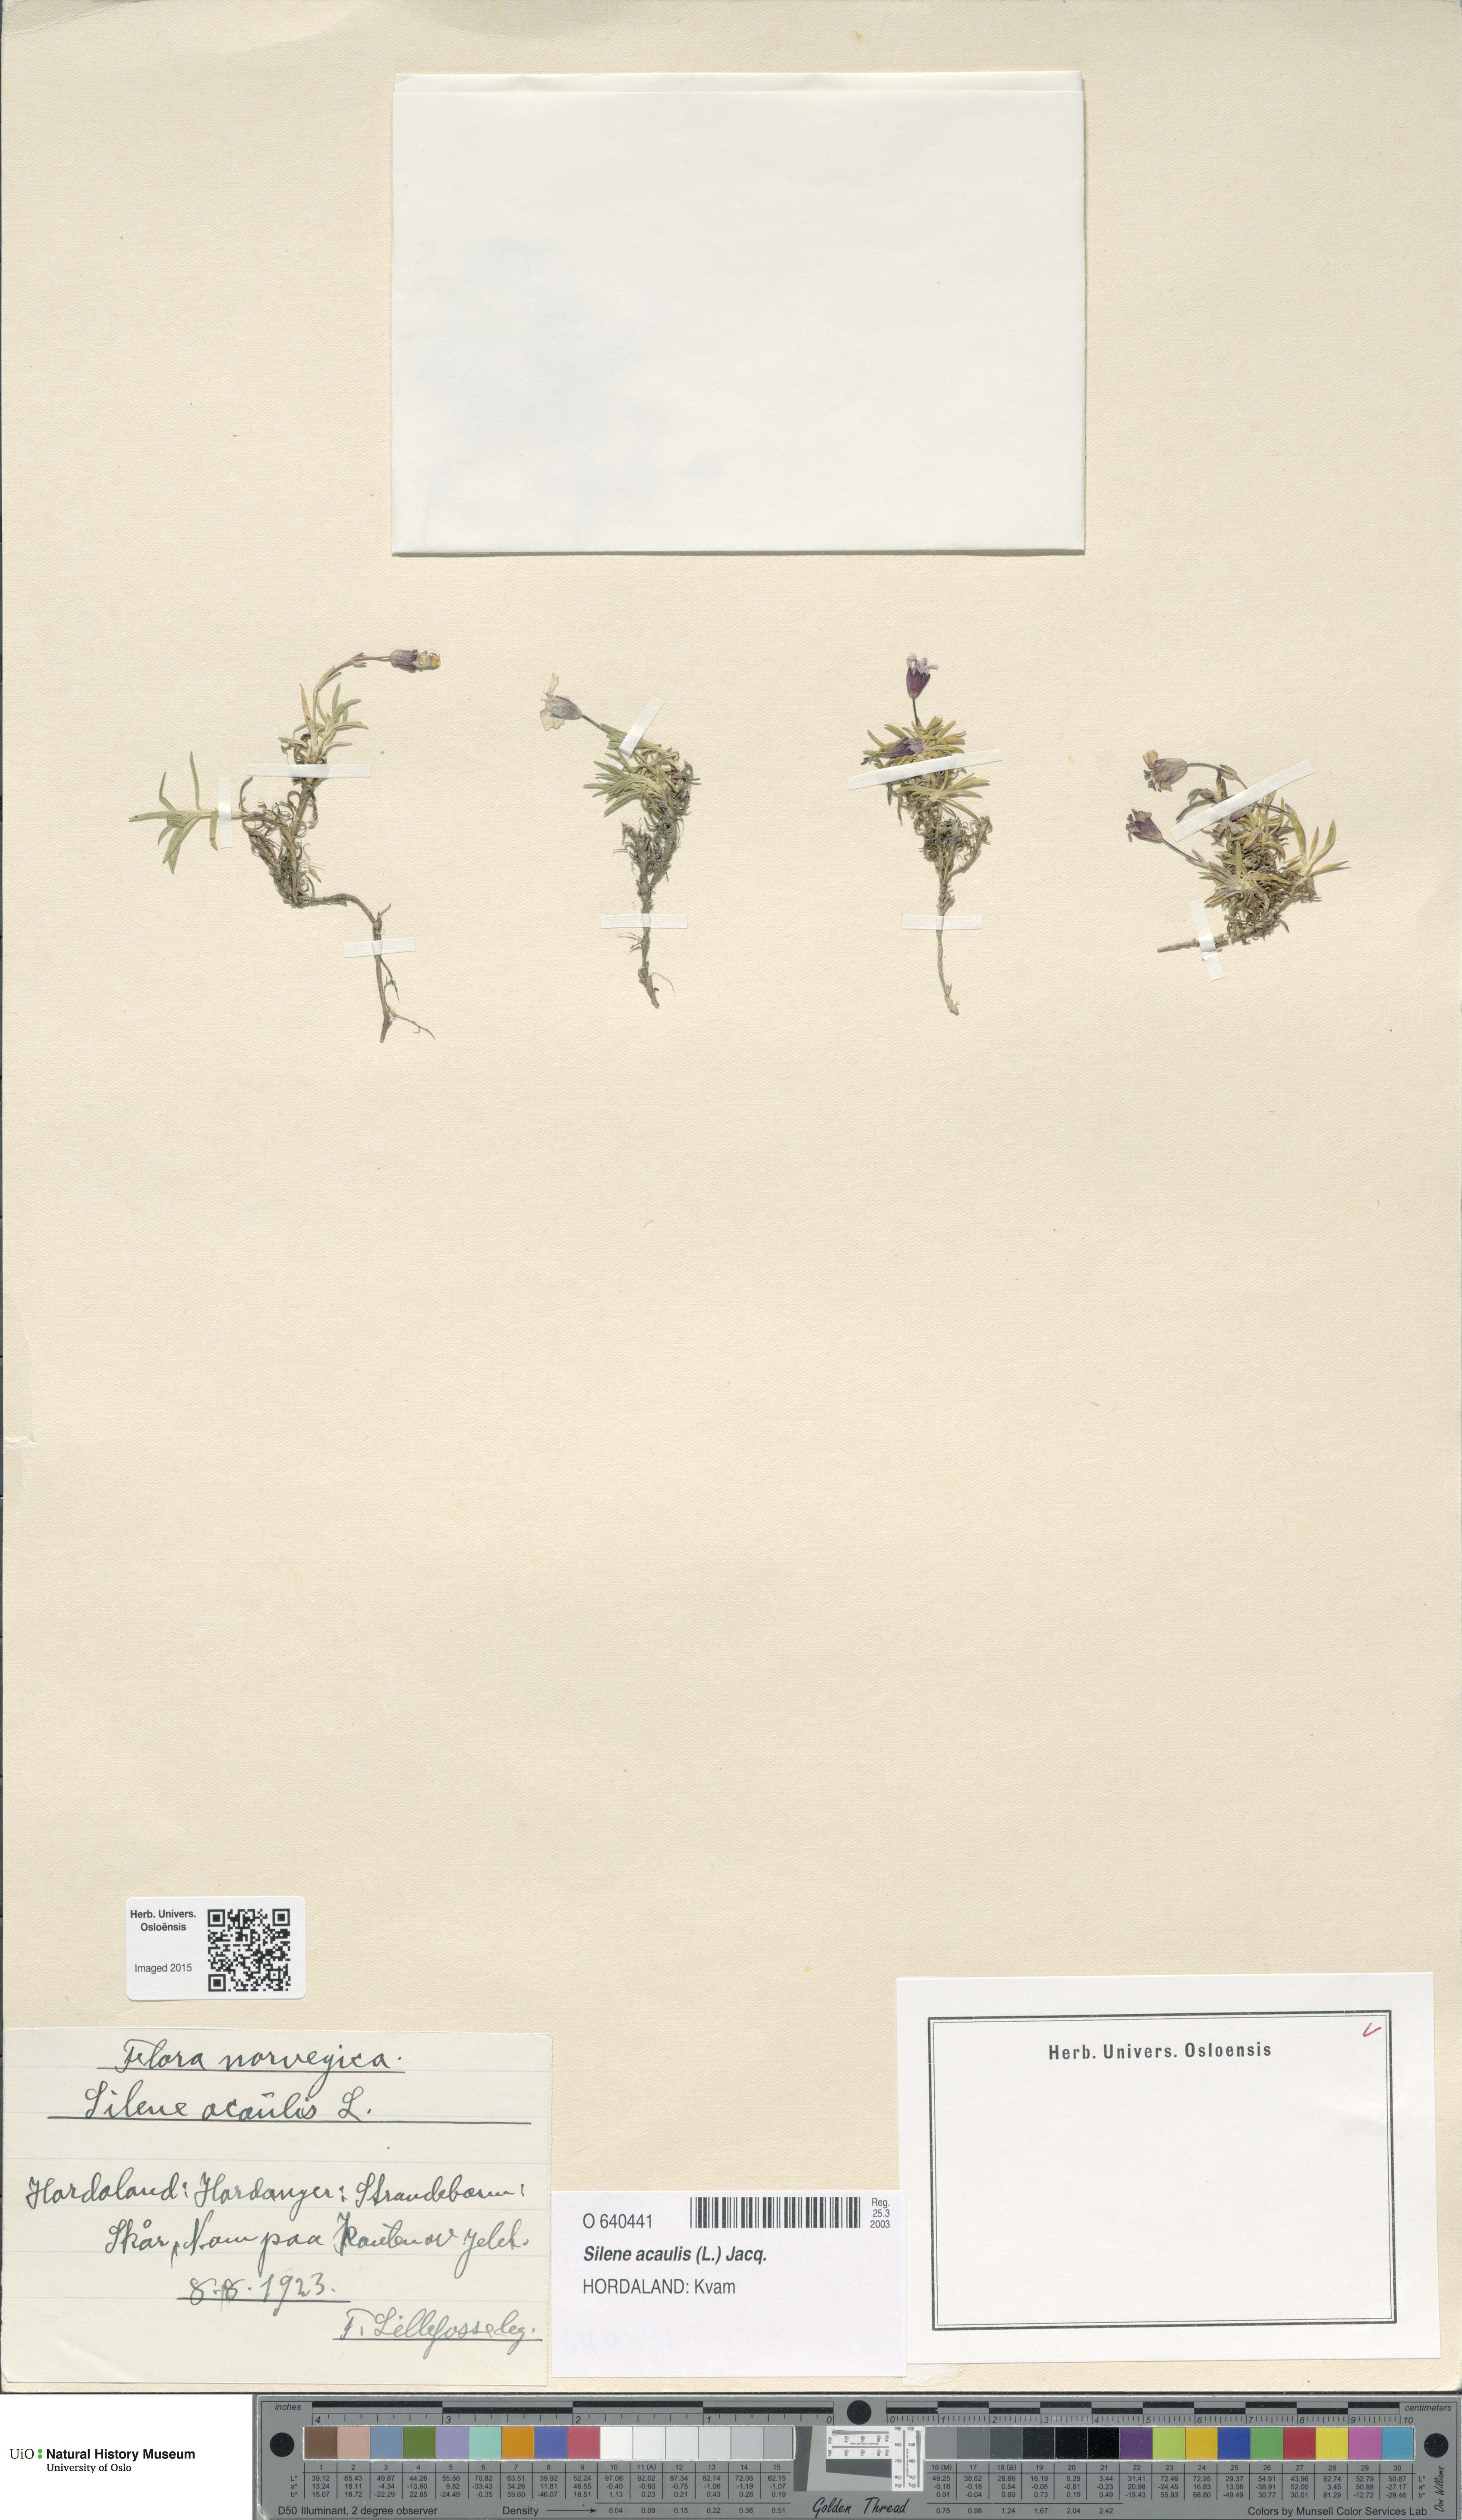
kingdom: Plantae
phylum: Tracheophyta
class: Magnoliopsida
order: Caryophyllales
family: Caryophyllaceae
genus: Silene
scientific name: Silene acaulis
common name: Moss campion
